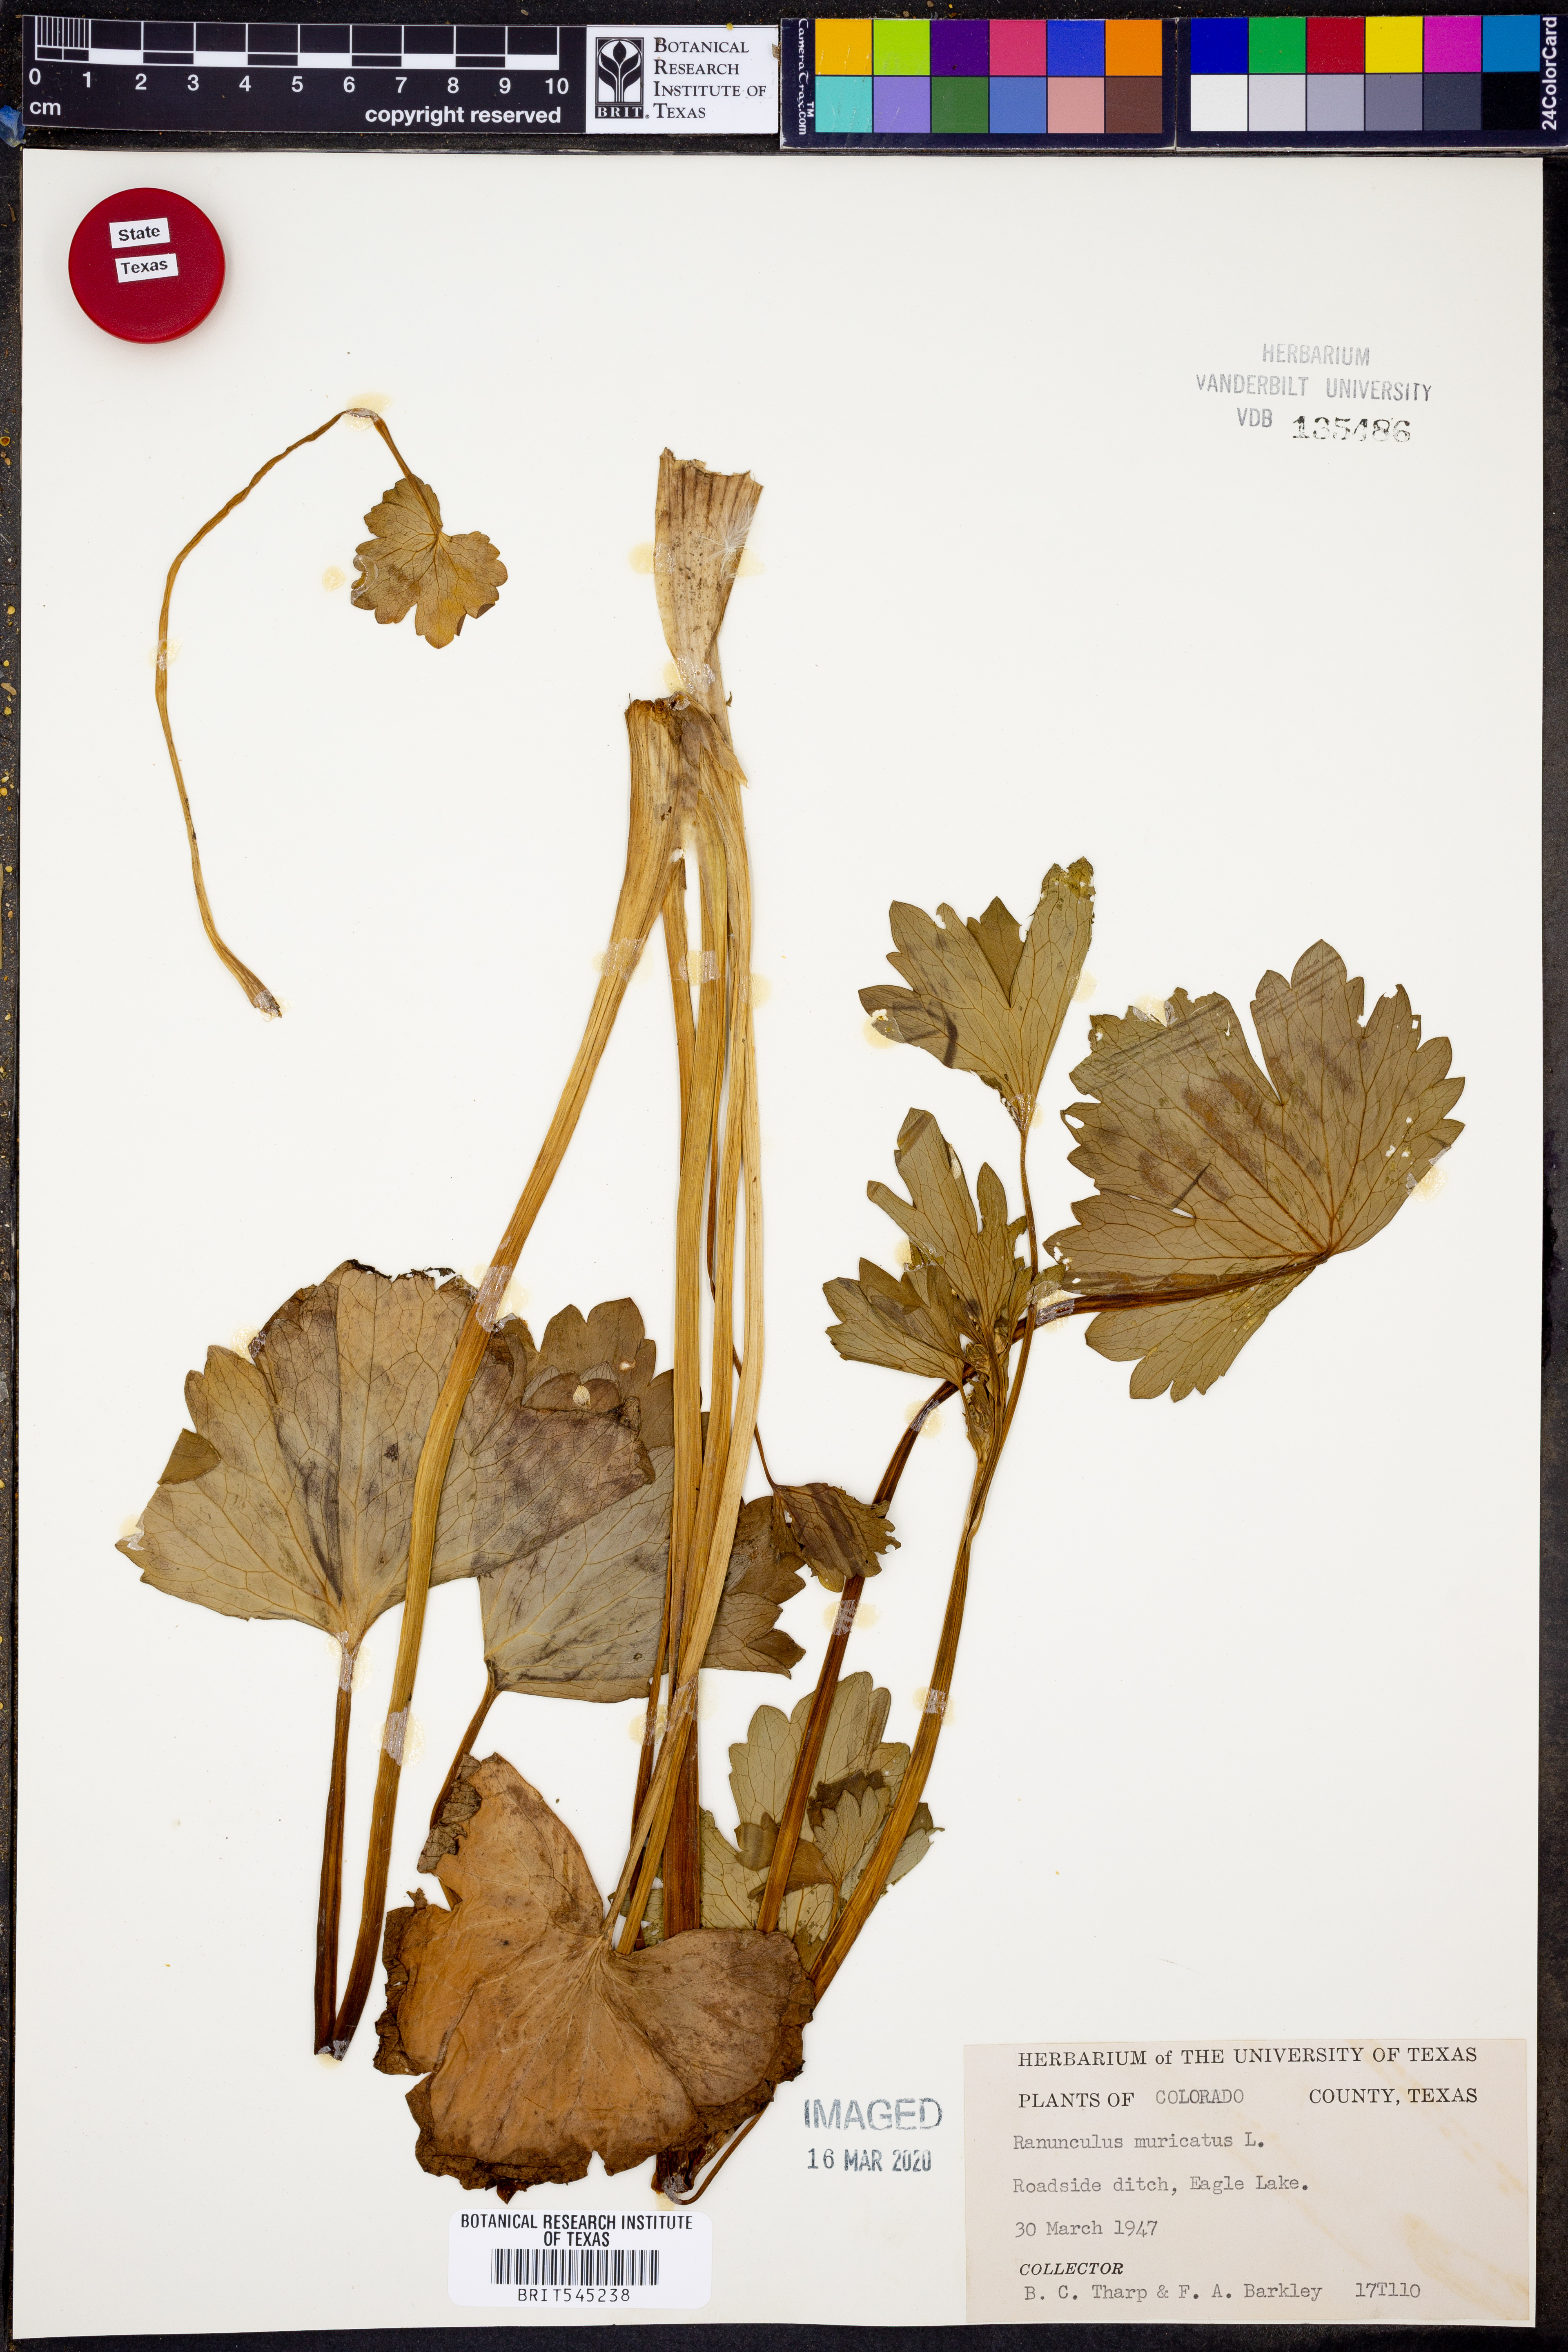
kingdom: Plantae
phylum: Tracheophyta
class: Magnoliopsida
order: Ranunculales
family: Ranunculaceae
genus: Ranunculus
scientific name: Ranunculus muricatus
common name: Rough-fruited buttercup
